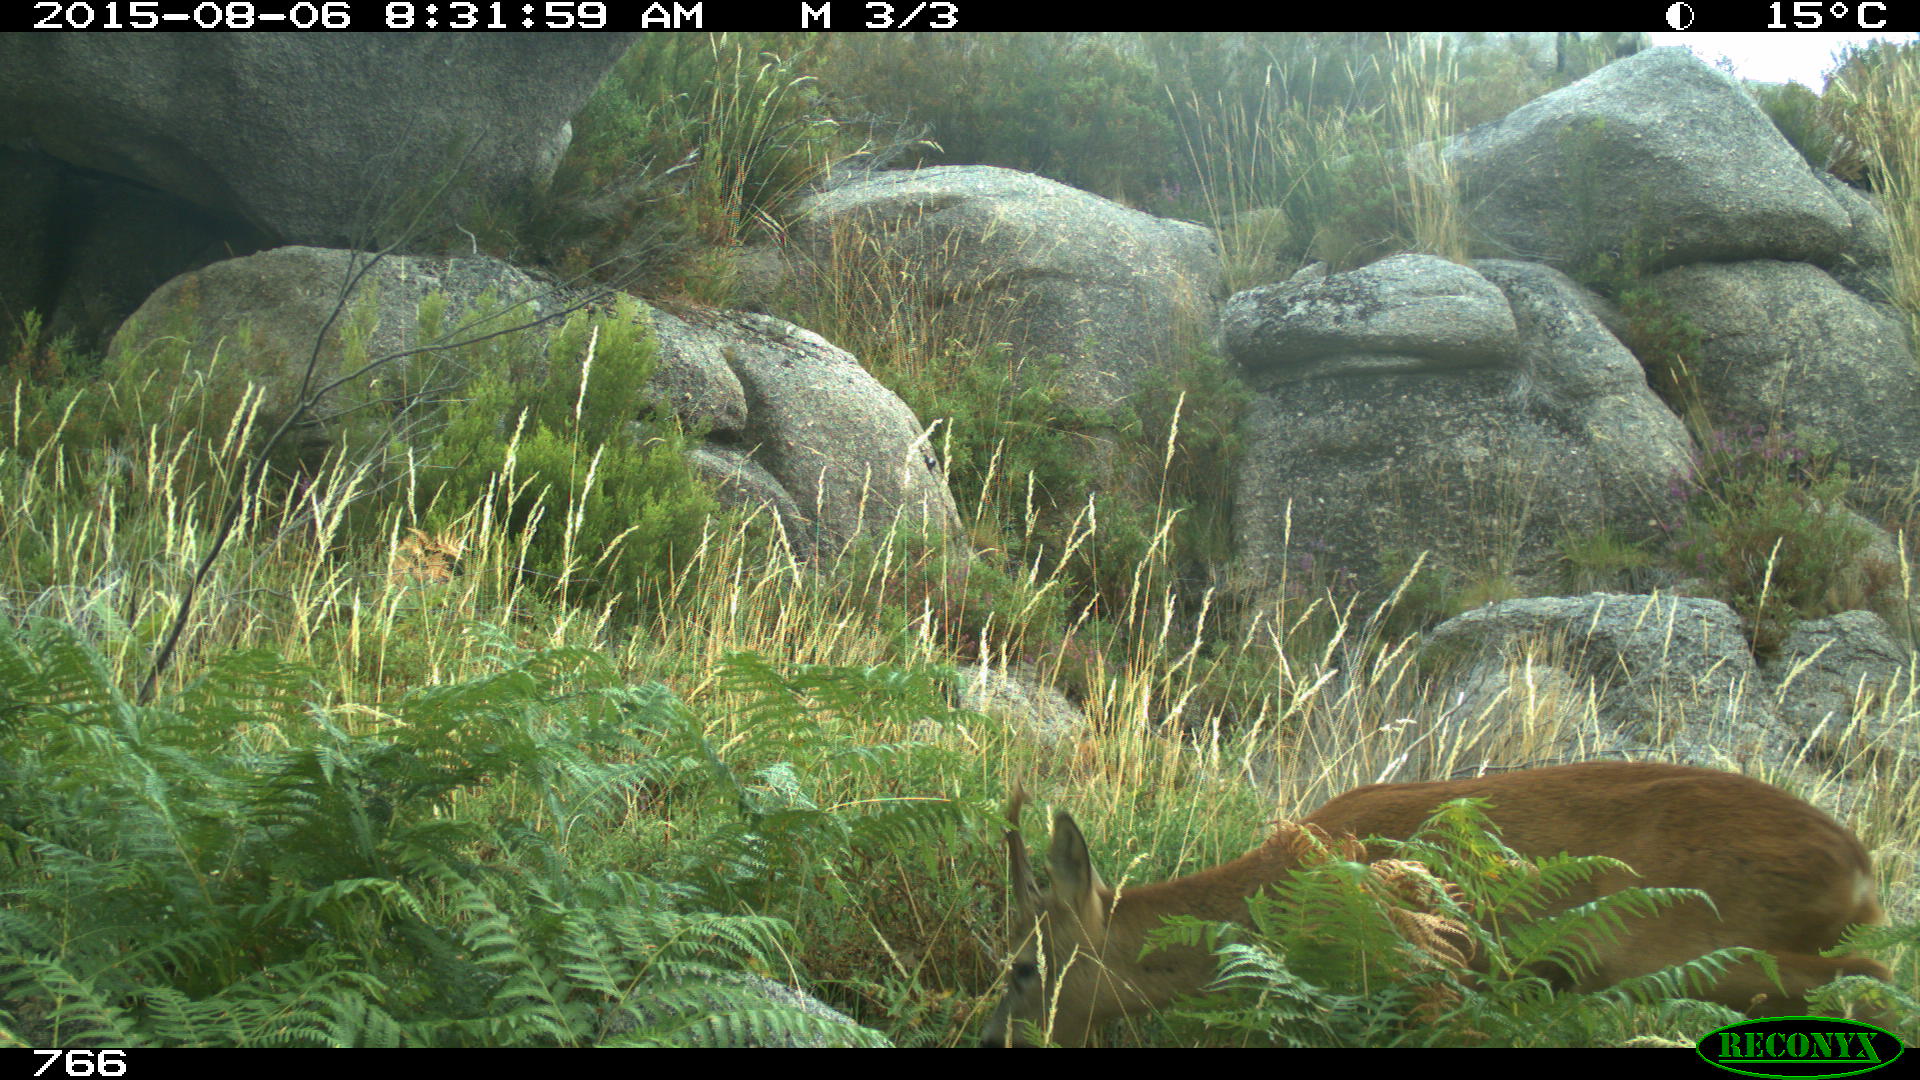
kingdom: Animalia
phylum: Chordata
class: Mammalia
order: Artiodactyla
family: Cervidae
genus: Capreolus
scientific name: Capreolus capreolus
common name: Western roe deer
